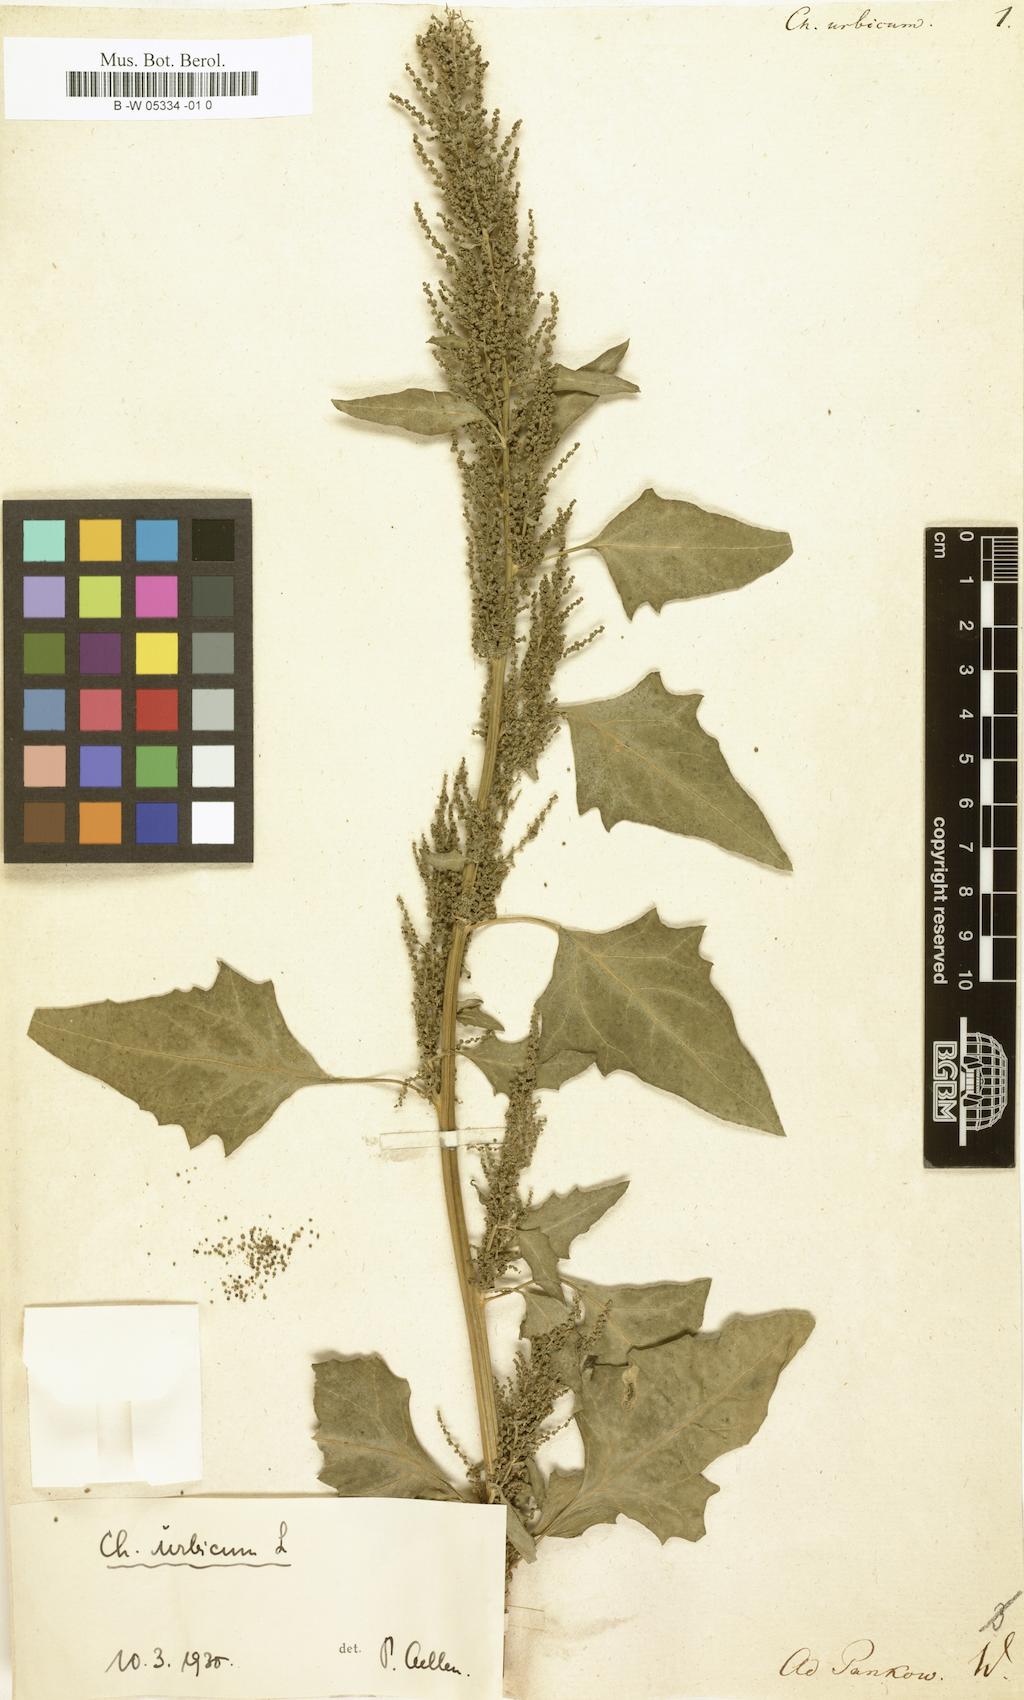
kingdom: Plantae
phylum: Tracheophyta
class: Magnoliopsida
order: Caryophyllales
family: Amaranthaceae
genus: Chenopodium
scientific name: Chenopodium urbicum
